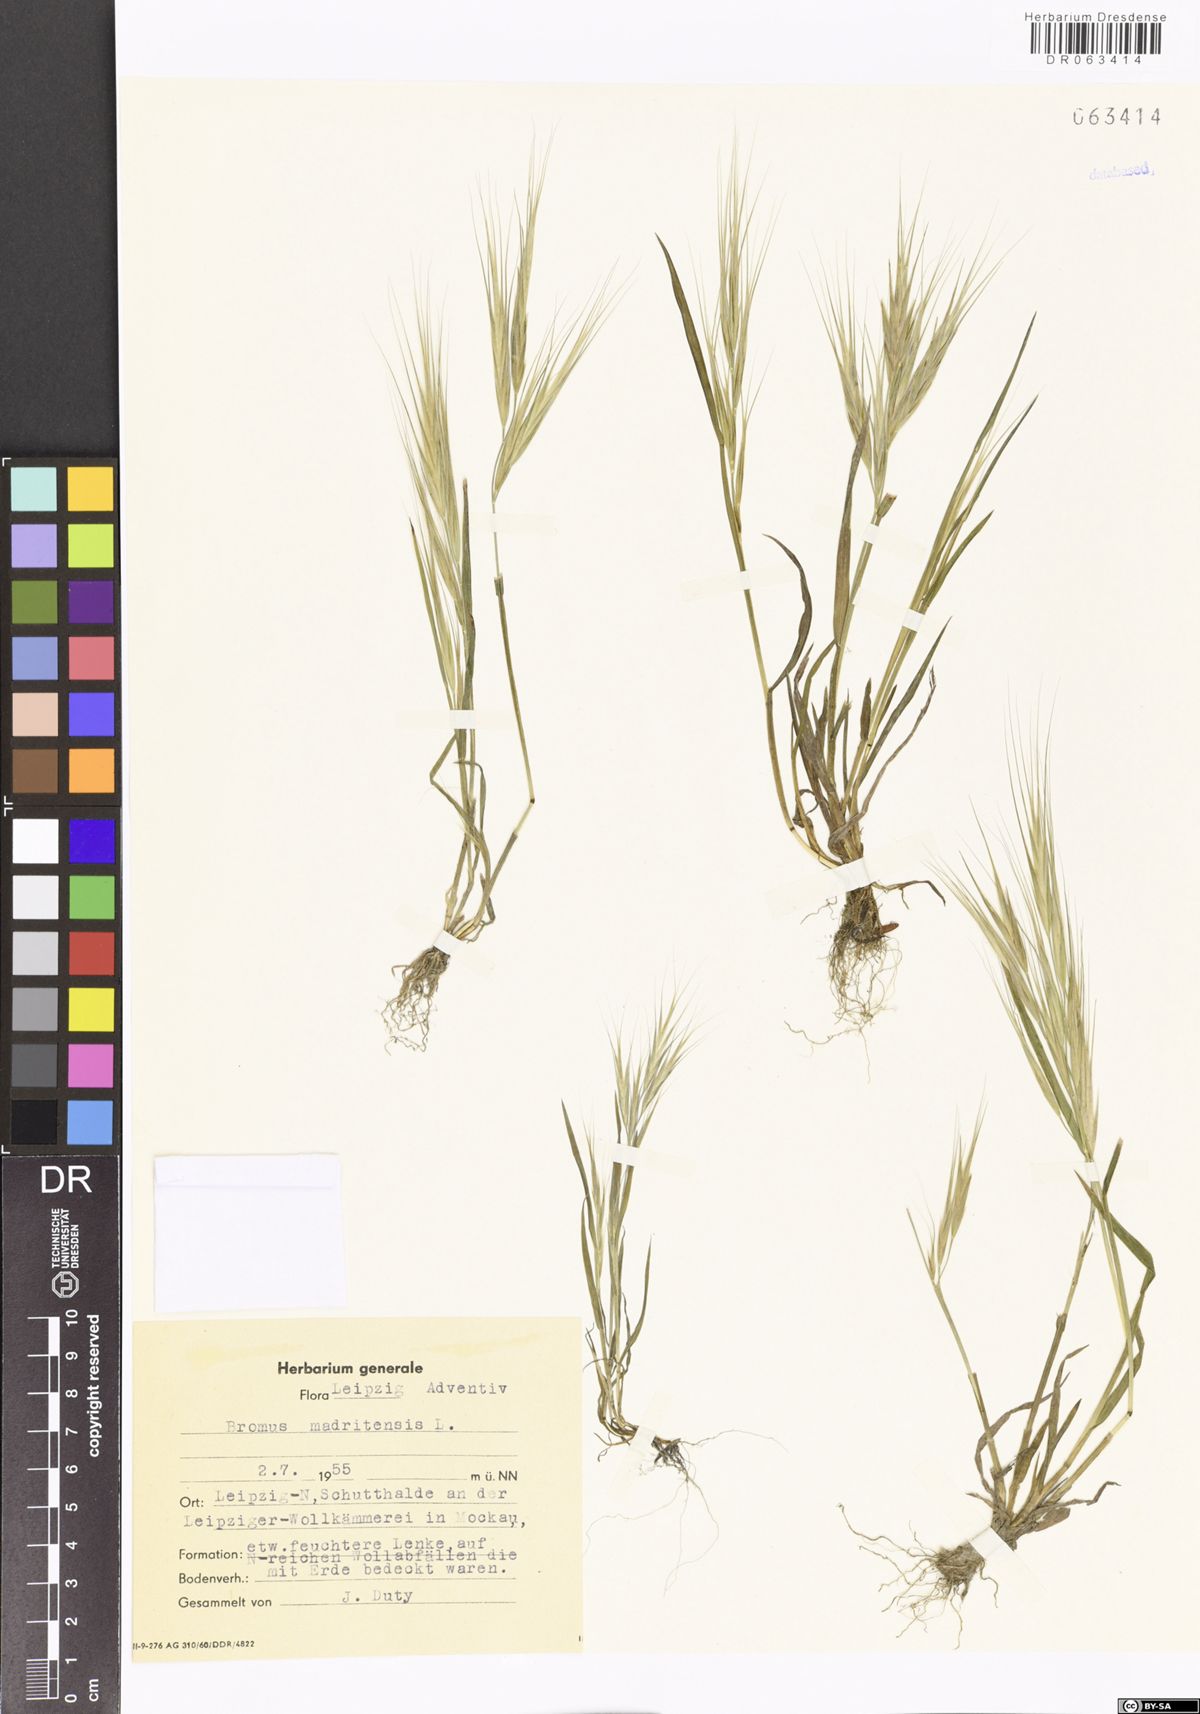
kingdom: Plantae
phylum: Tracheophyta
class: Liliopsida
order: Poales
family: Poaceae
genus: Bromus
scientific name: Bromus madritensis
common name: Compact brome
